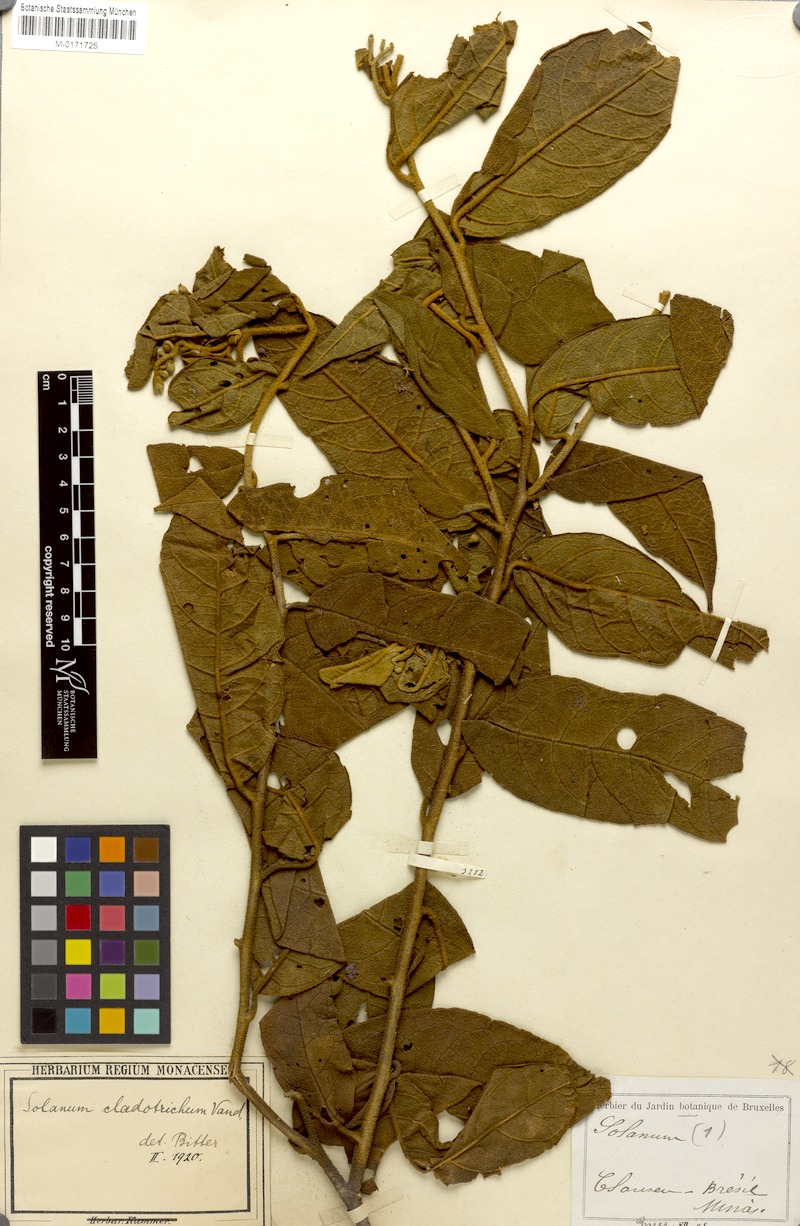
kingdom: Plantae
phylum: Tracheophyta
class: Magnoliopsida
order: Solanales
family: Solanaceae
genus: Lycianthes
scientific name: Lycianthes cladotrichota
